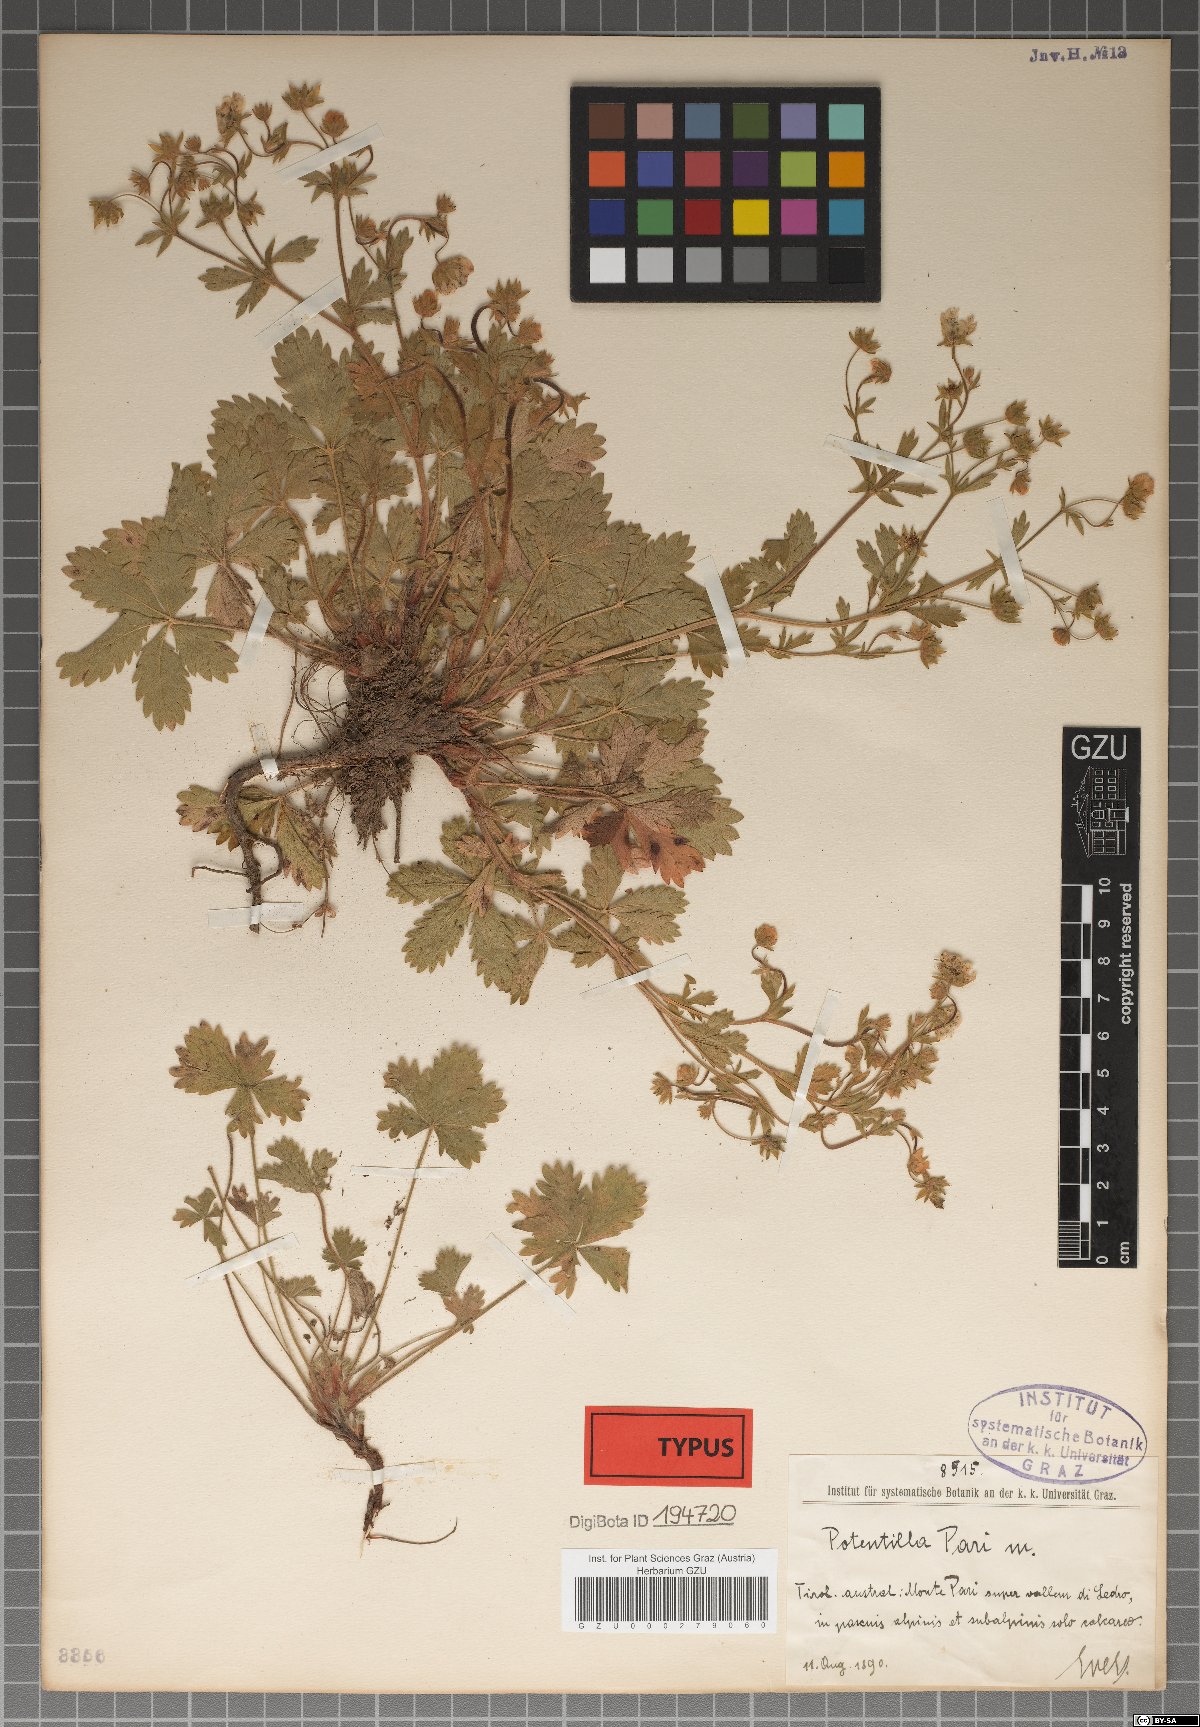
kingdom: Plantae
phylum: Tracheophyta
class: Magnoliopsida
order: Rosales
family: Rosaceae
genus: Potentilla
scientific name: Potentilla pusilla
